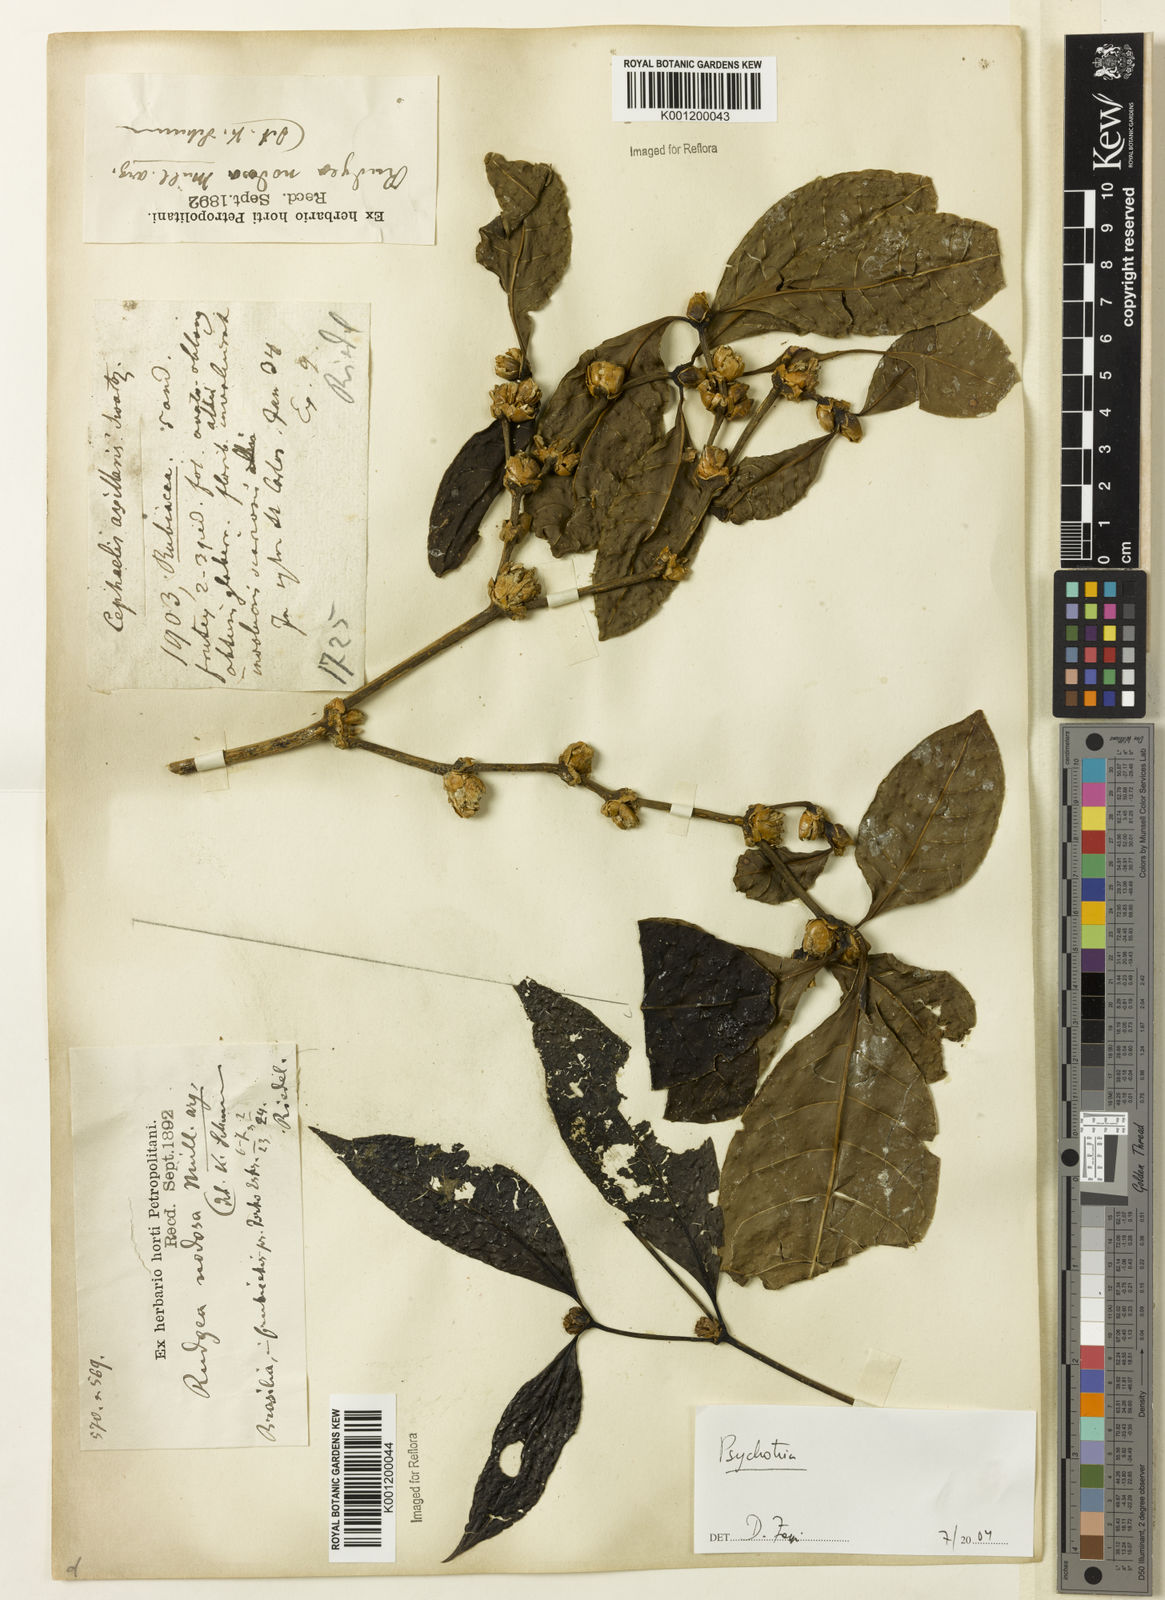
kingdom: Plantae
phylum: Tracheophyta
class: Magnoliopsida
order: Gentianales
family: Rubiaceae
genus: Psychotria
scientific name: Psychotria
